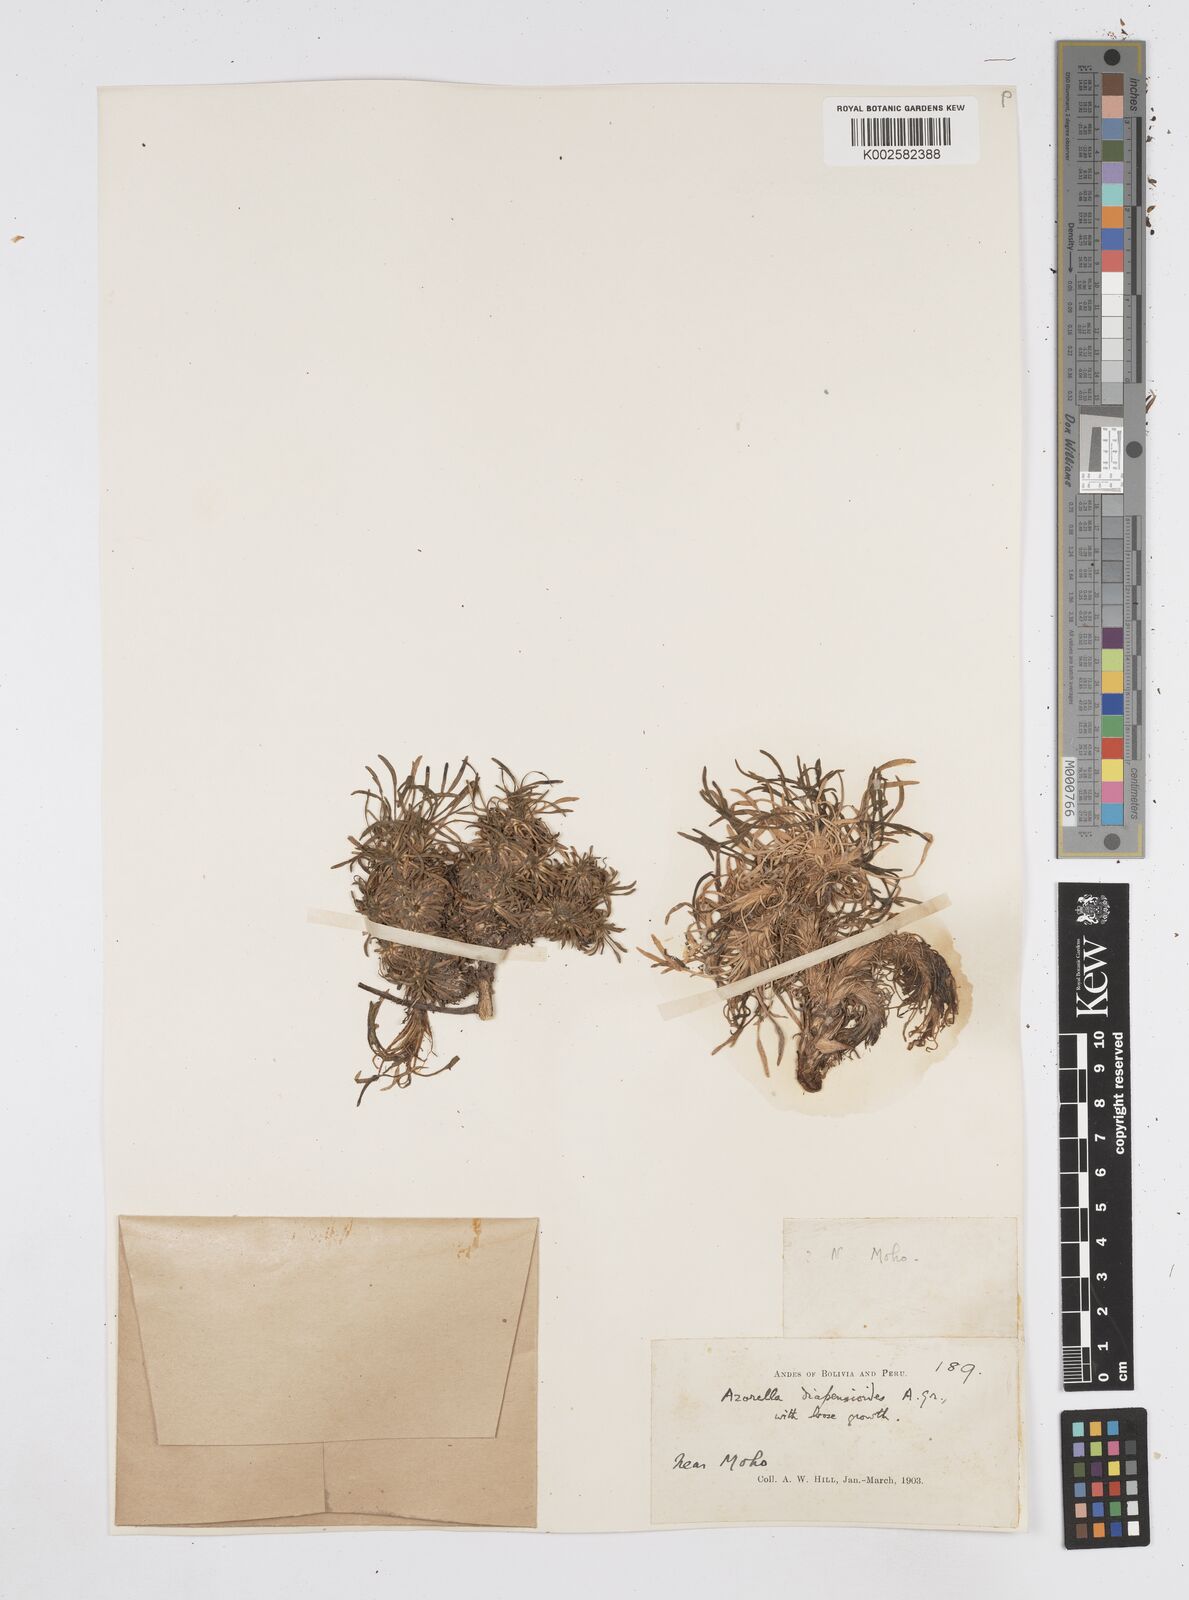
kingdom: Plantae
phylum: Tracheophyta
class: Magnoliopsida
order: Apiales
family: Apiaceae
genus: Azorella
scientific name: Azorella diapensioides
